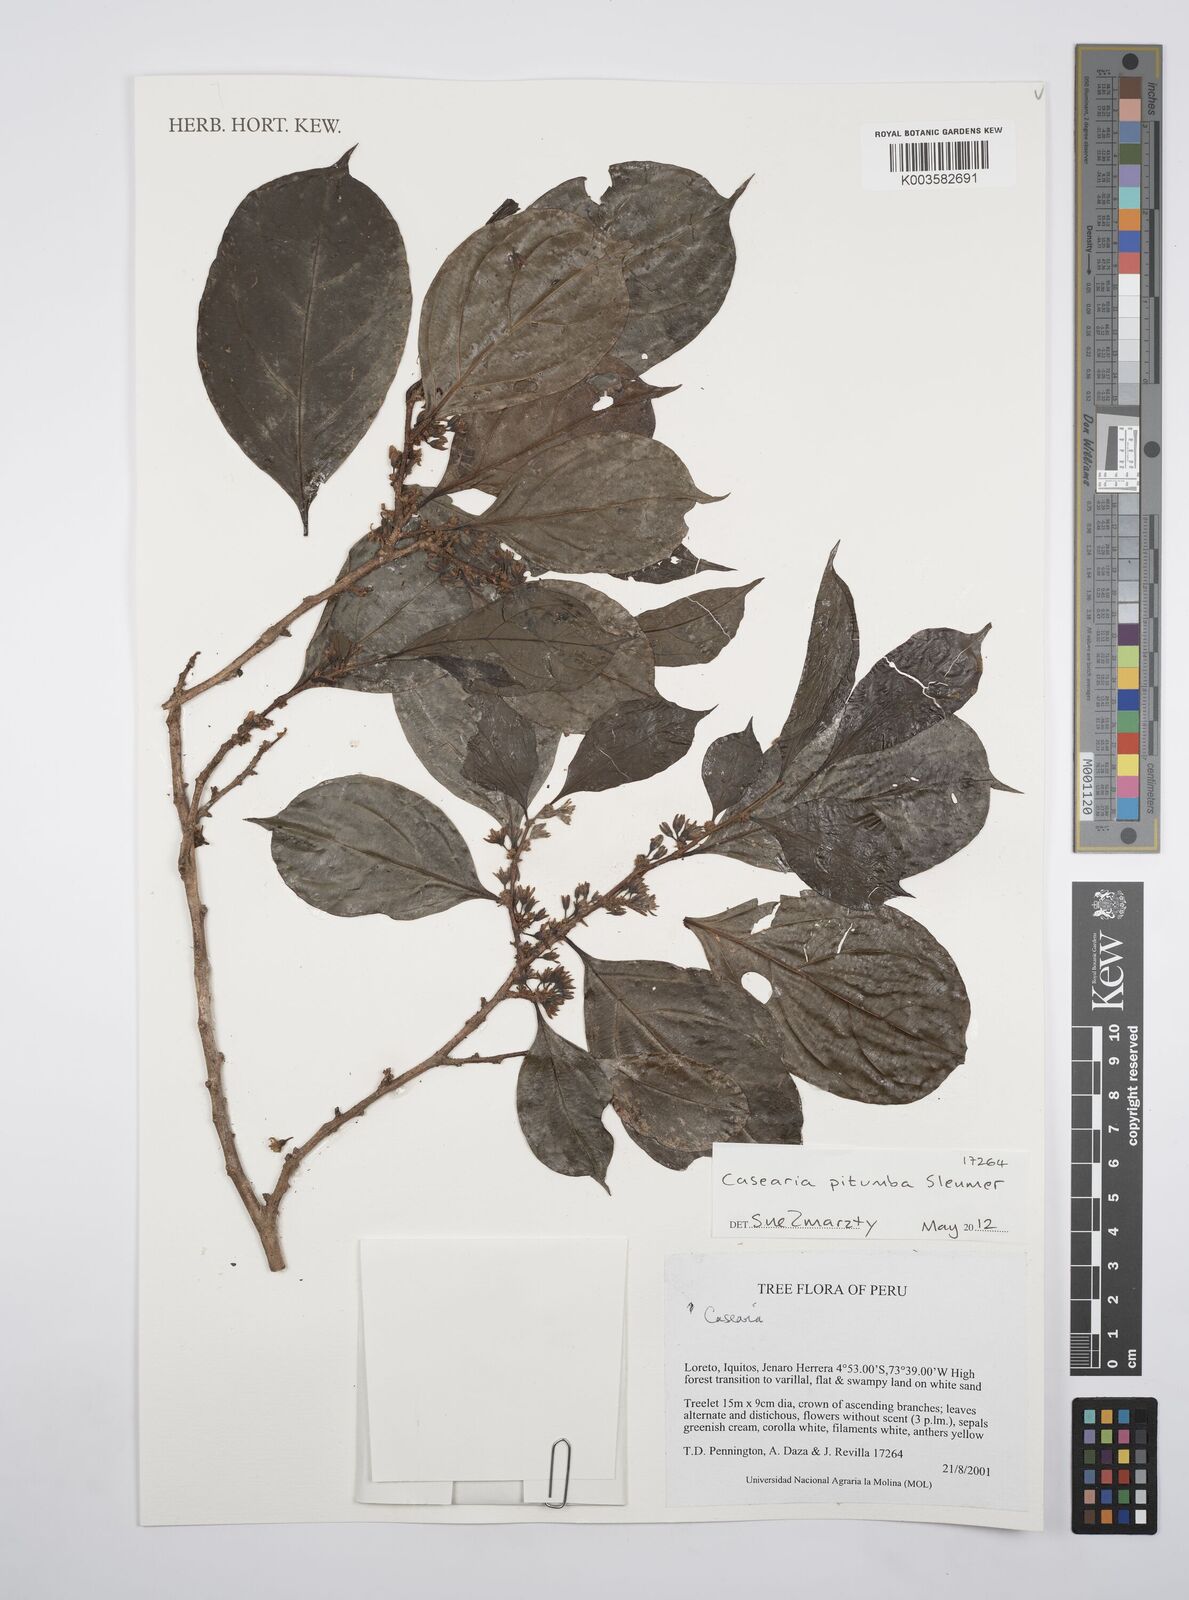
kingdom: Plantae
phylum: Tracheophyta
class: Magnoliopsida
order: Malpighiales
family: Salicaceae
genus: Casearia
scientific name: Casearia pitumba
